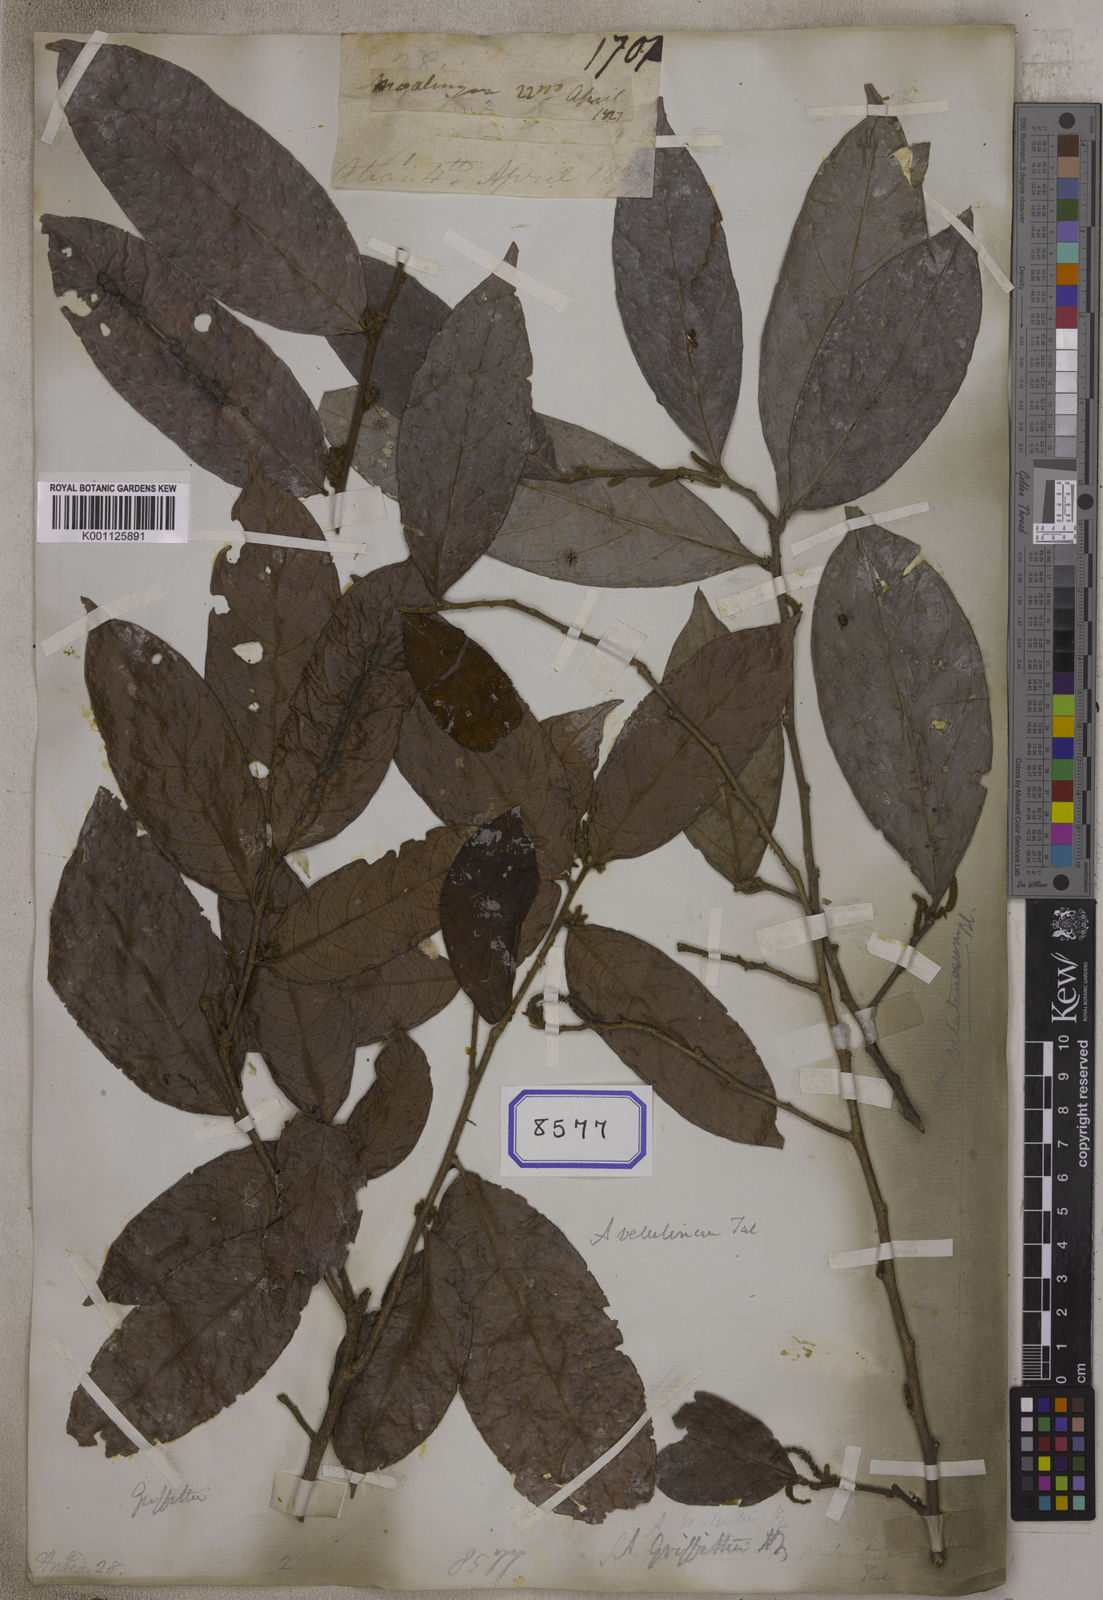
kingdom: Plantae
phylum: Tracheophyta
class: Magnoliopsida
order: Malpighiales
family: Phyllanthaceae
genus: Antidesma
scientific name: Antidesma
